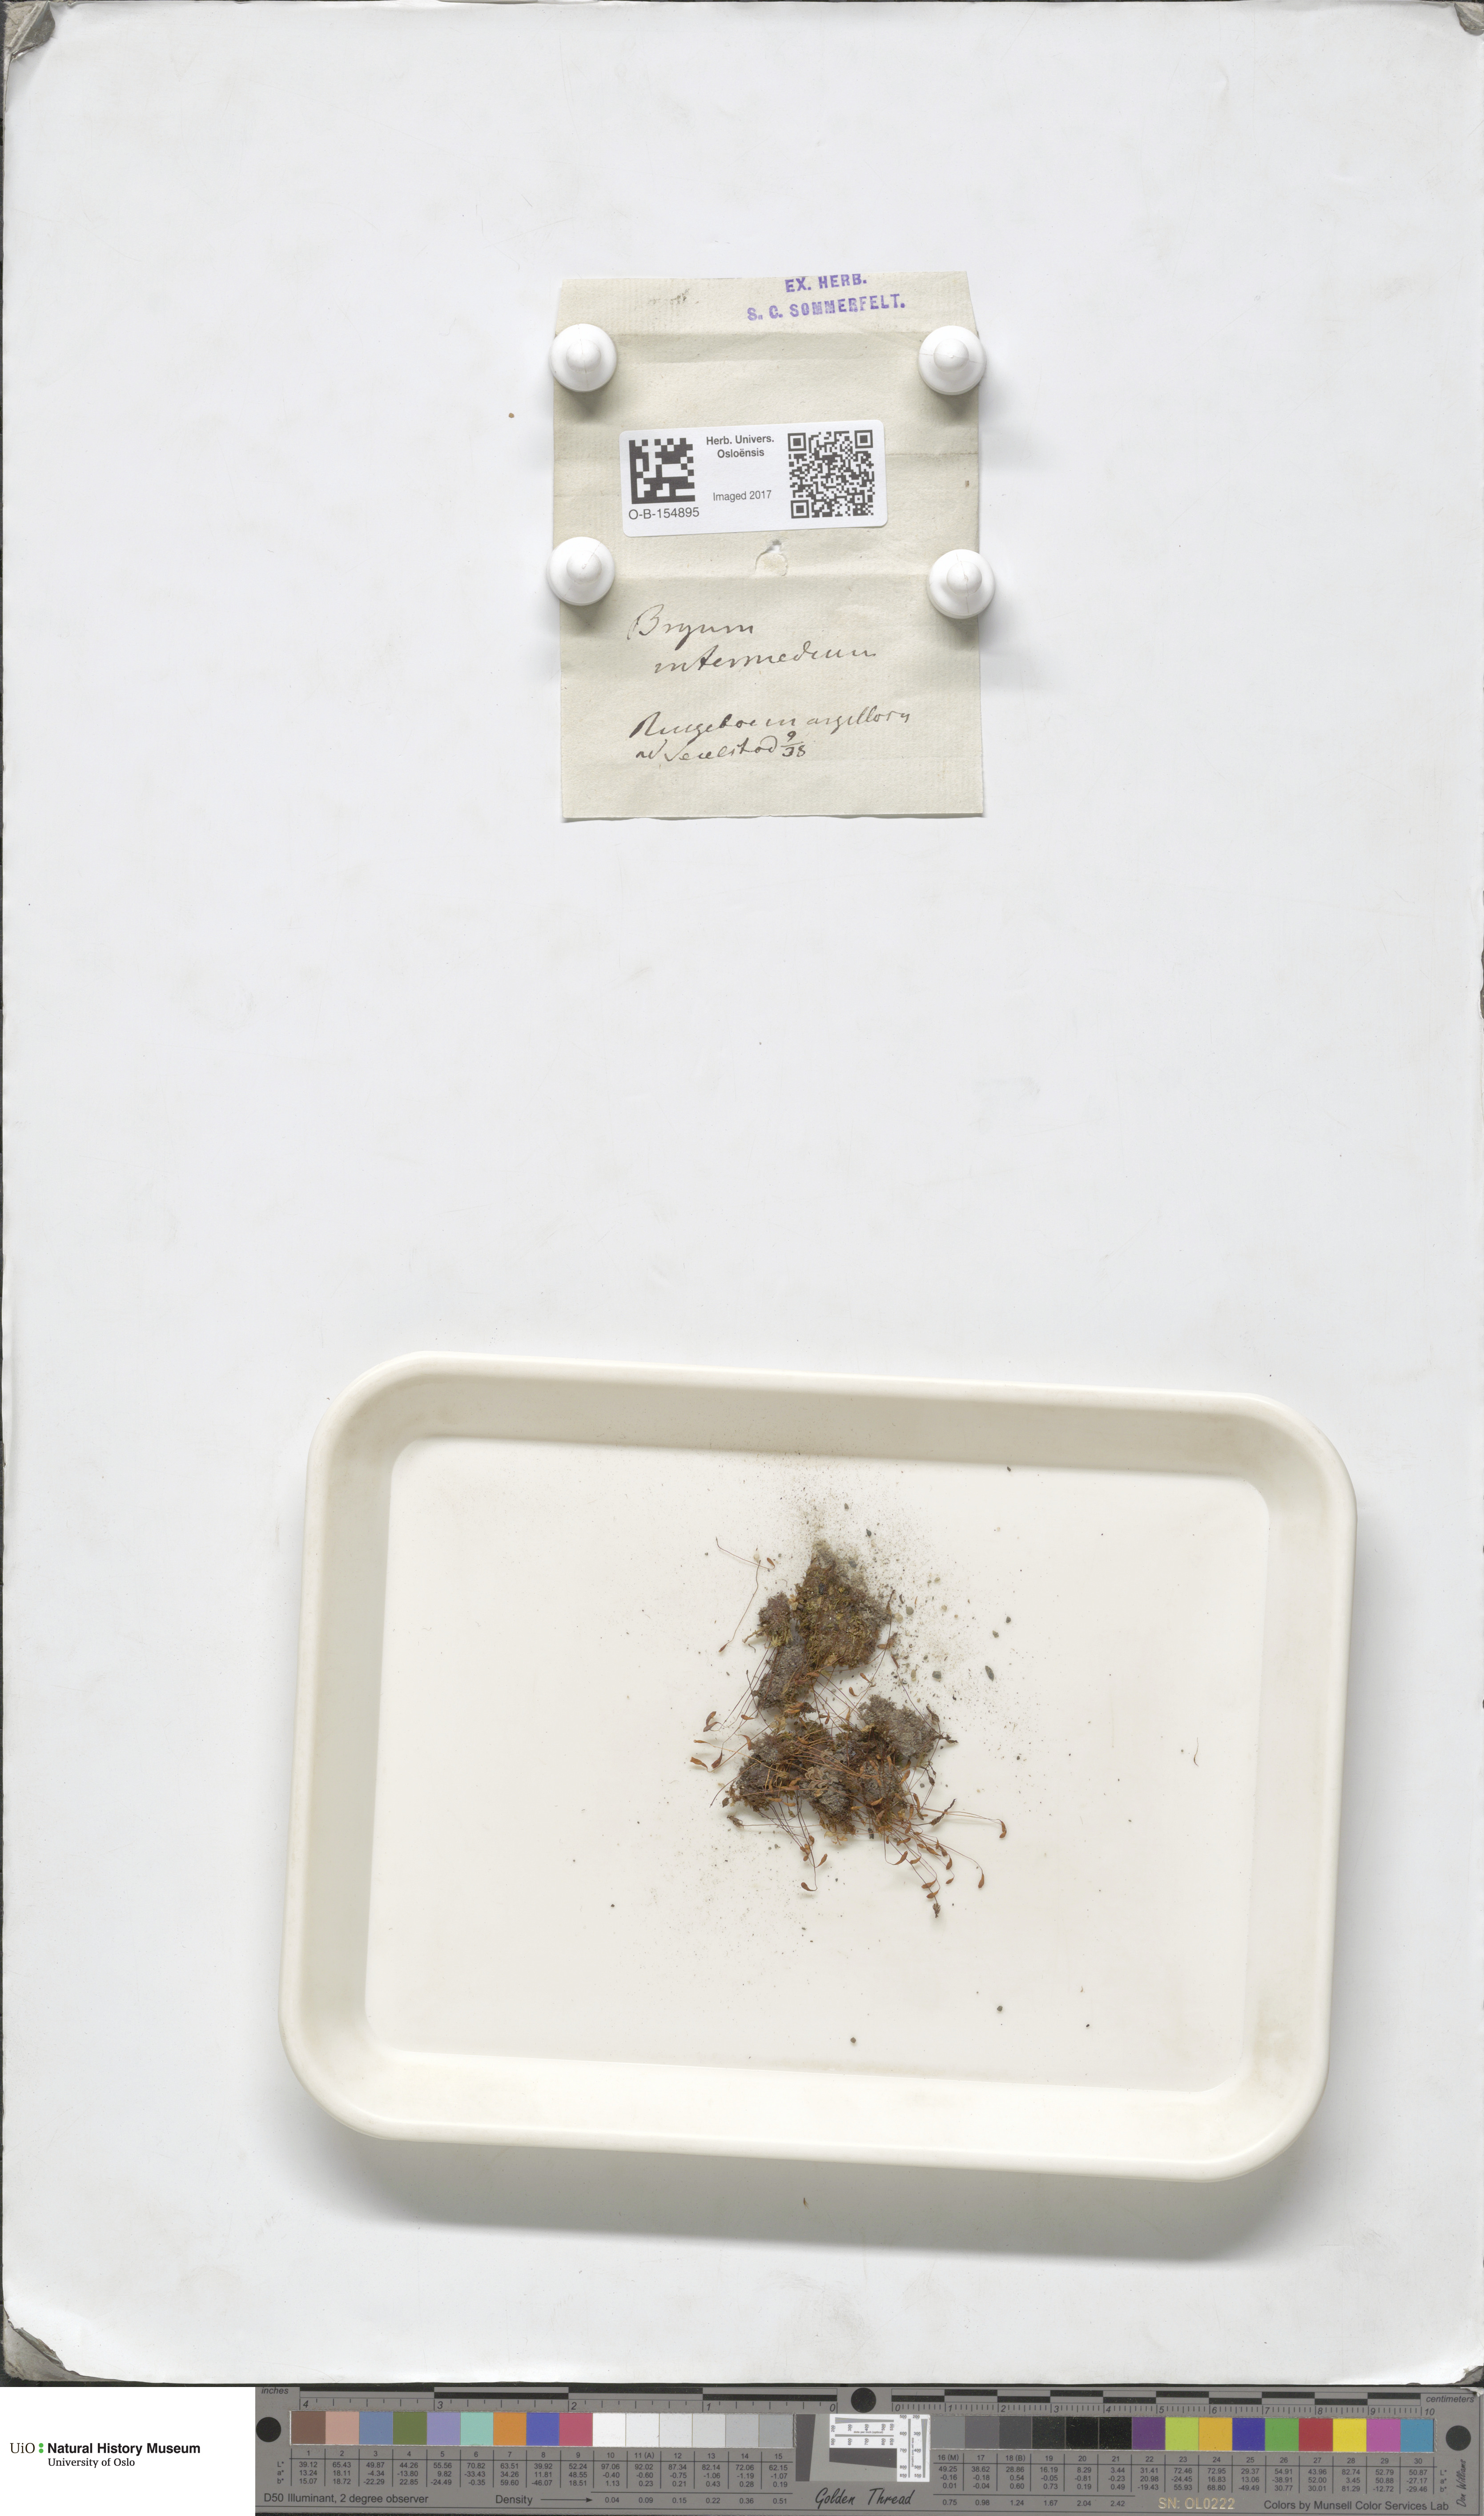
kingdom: Plantae
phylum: Bryophyta
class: Bryopsida
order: Bryales
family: Bryaceae
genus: Ptychostomum
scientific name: Ptychostomum intermedium
